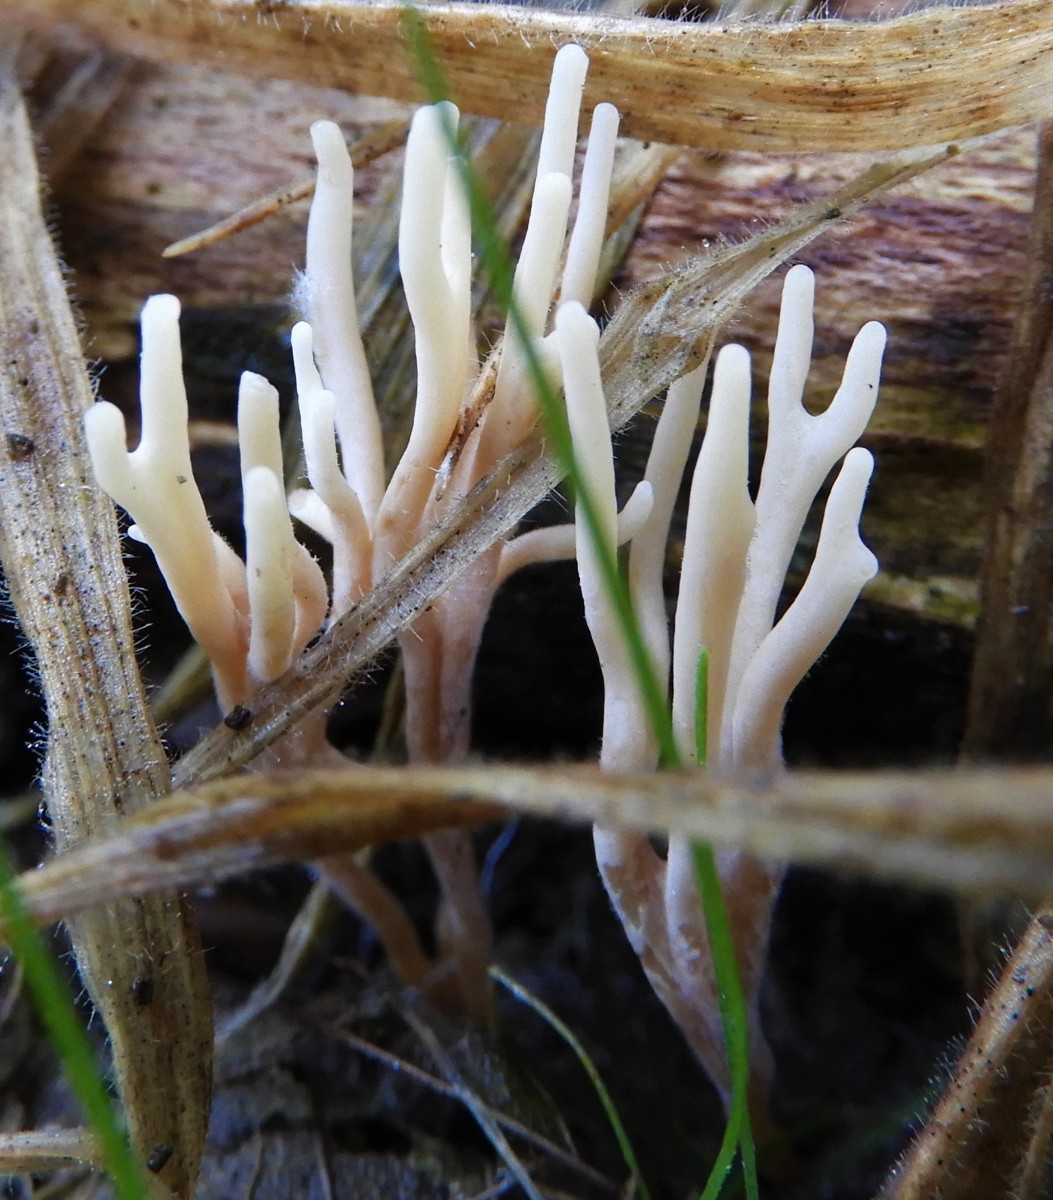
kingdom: Fungi
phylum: Basidiomycota
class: Agaricomycetes
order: Agaricales
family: Clavariaceae
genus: Ramariopsis
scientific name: Ramariopsis
